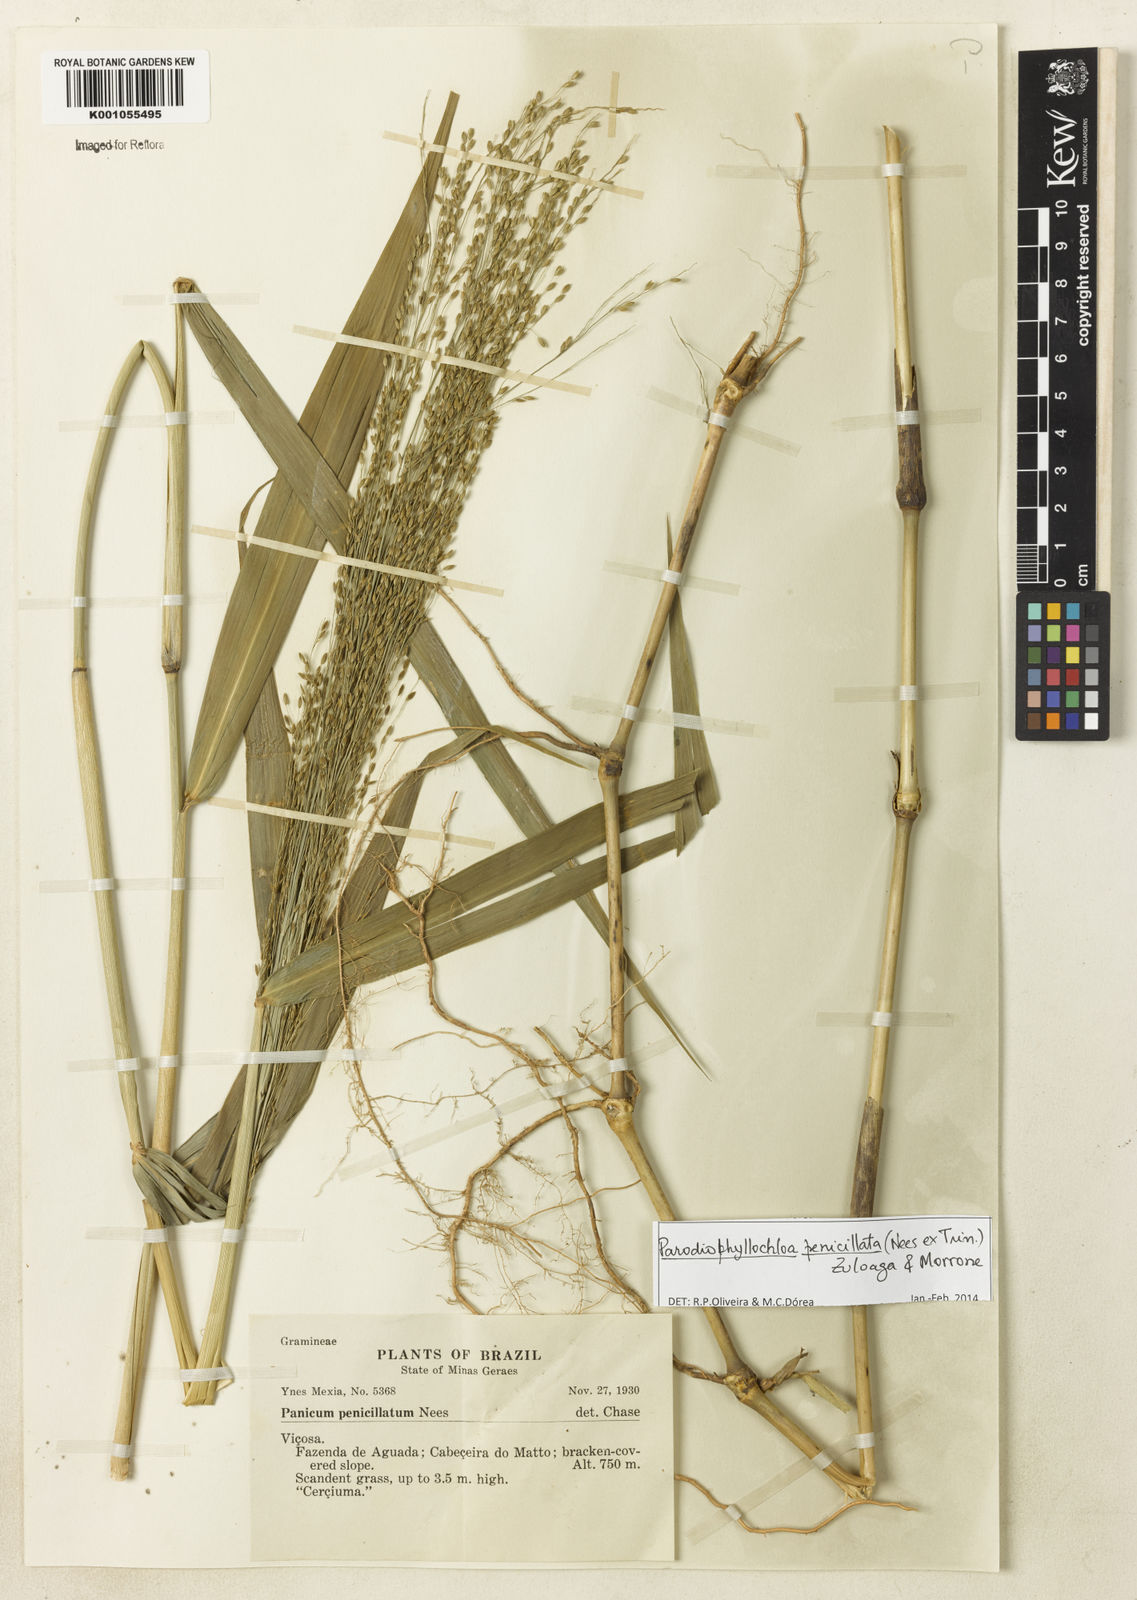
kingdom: Plantae
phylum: Tracheophyta
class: Liliopsida
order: Poales
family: Poaceae
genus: Panicum
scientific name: Panicum
